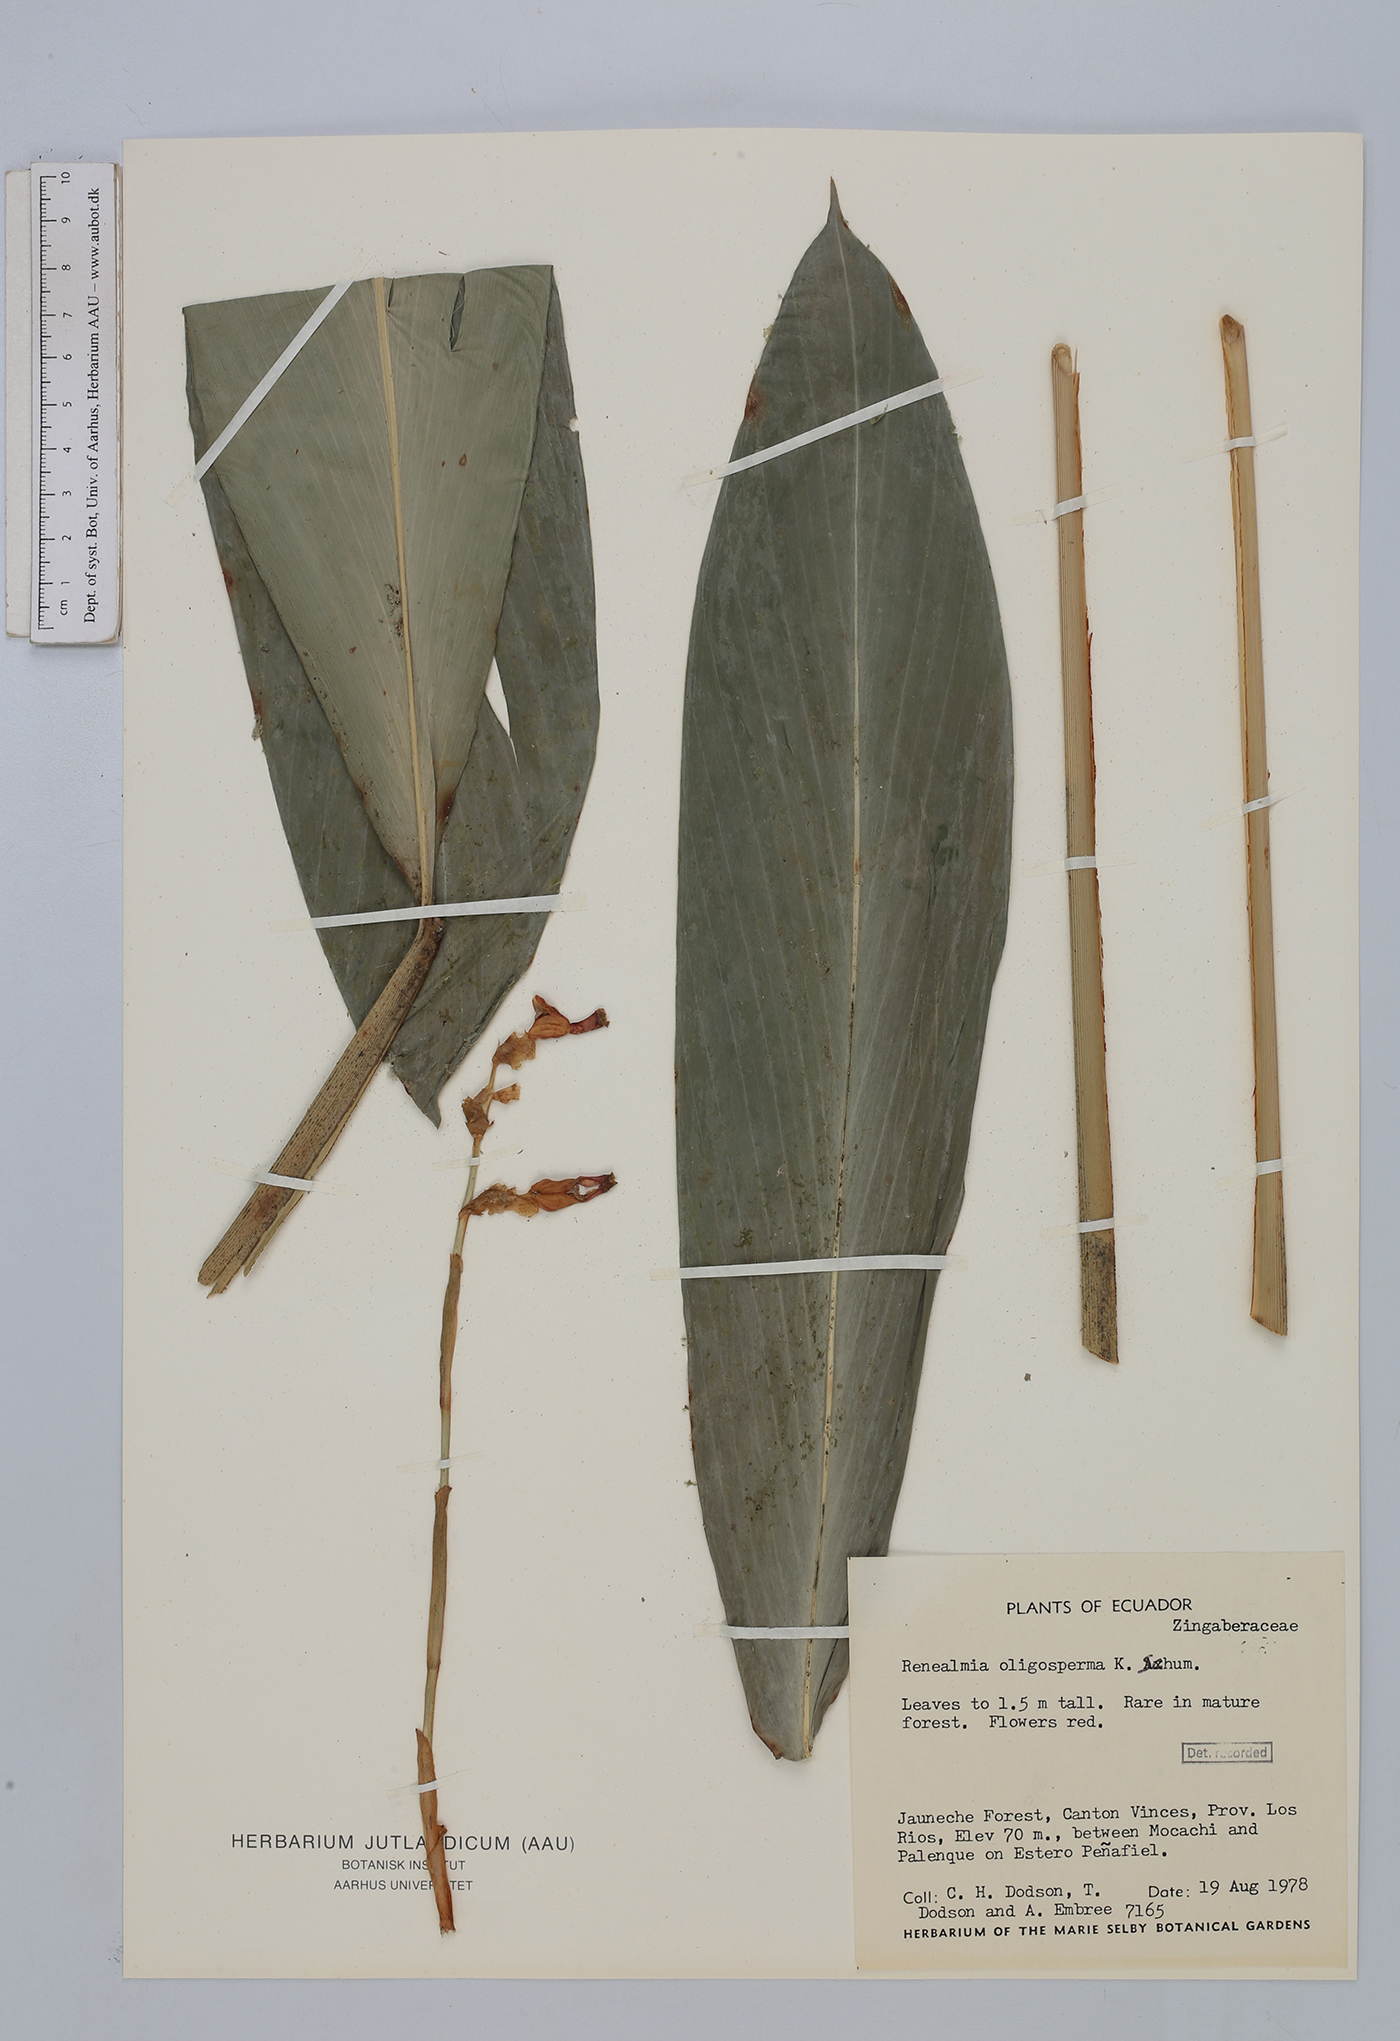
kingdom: Plantae
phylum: Tracheophyta
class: Liliopsida
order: Zingiberales
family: Zingiberaceae
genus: Renealmia
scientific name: Renealmia oligosperma
